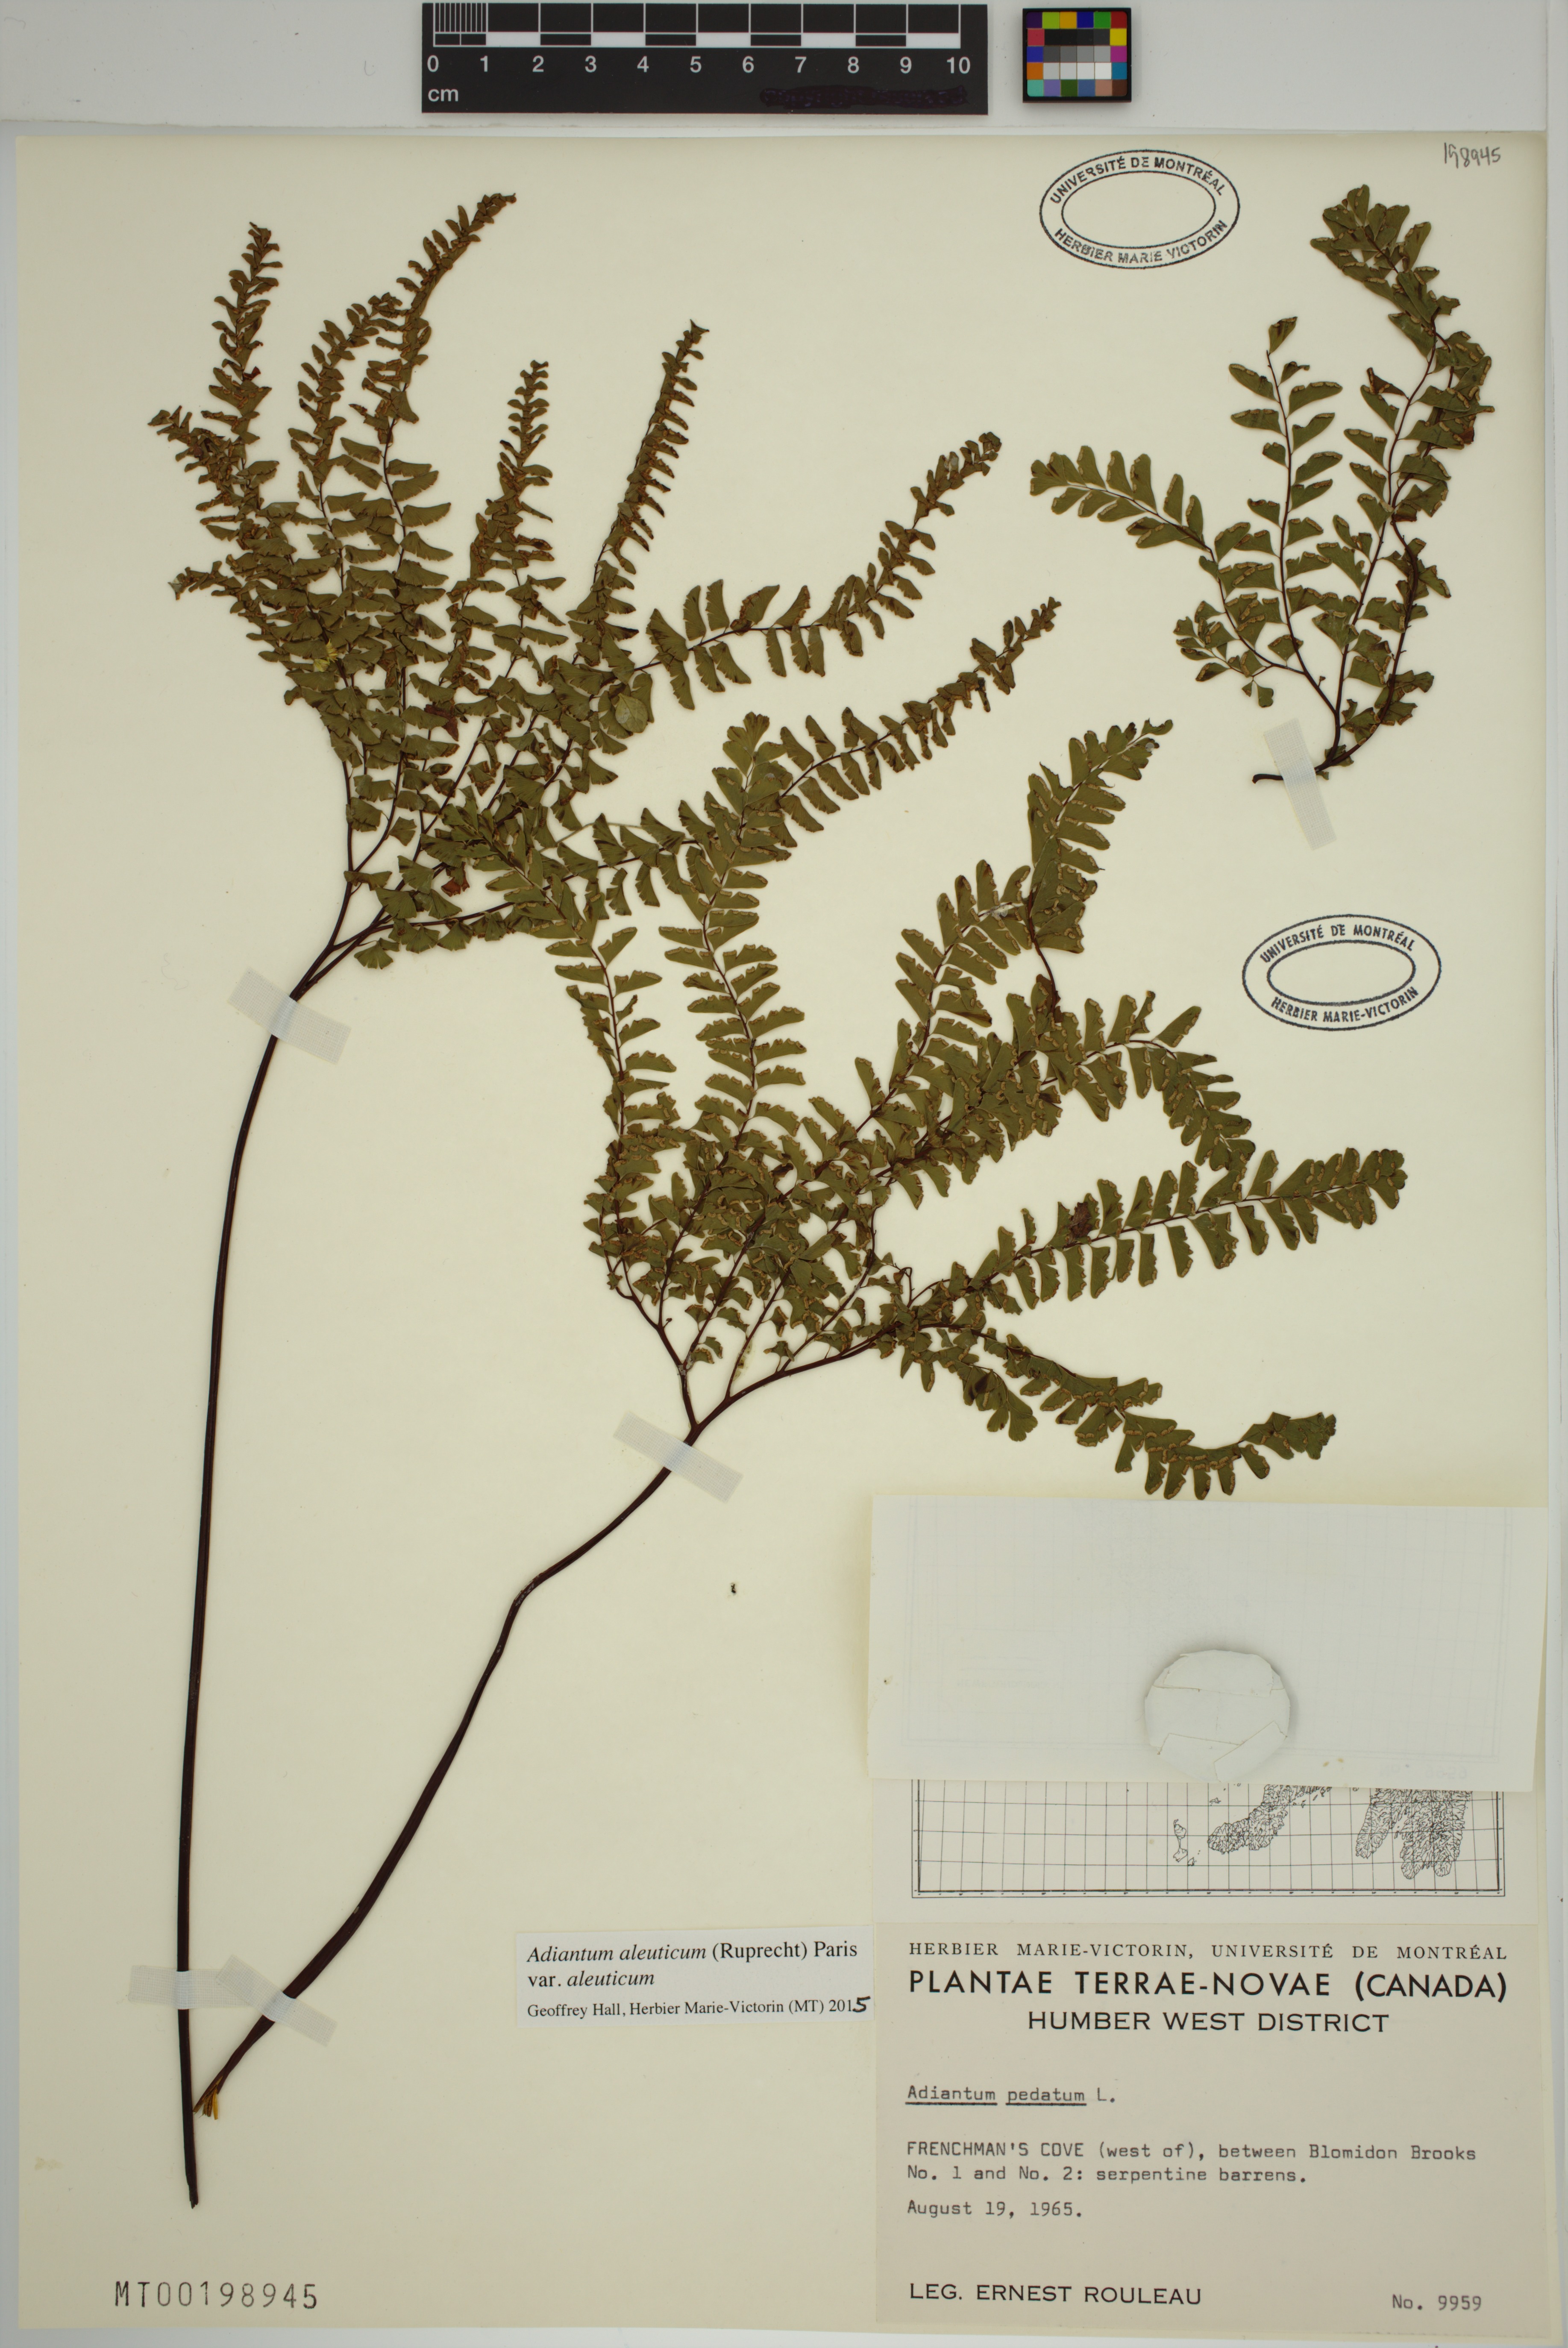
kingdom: Plantae
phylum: Tracheophyta
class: Polypodiopsida
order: Polypodiales
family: Pteridaceae
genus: Adiantum
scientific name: Adiantum aleuticum
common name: Aleutian maidenhair fern
